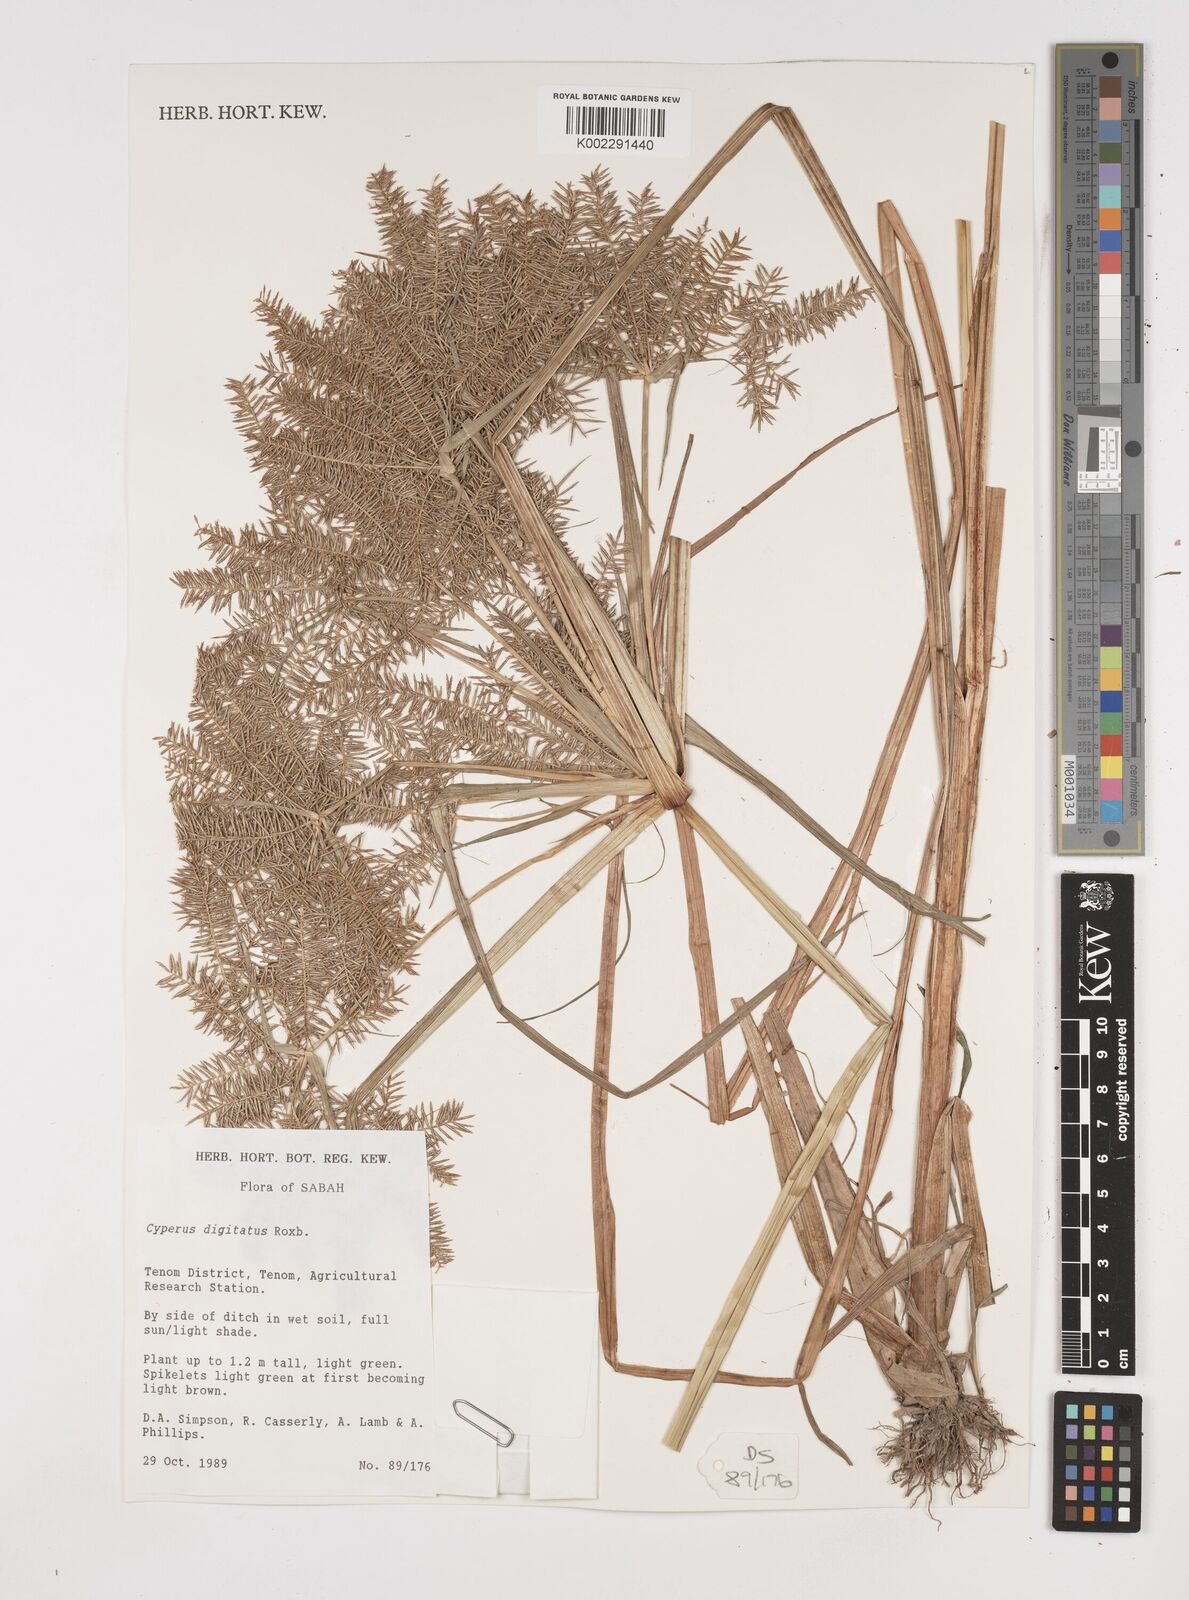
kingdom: Plantae
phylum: Tracheophyta
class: Liliopsida
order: Poales
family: Cyperaceae
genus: Cyperus
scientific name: Cyperus digitatus
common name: Finger flatsedge
